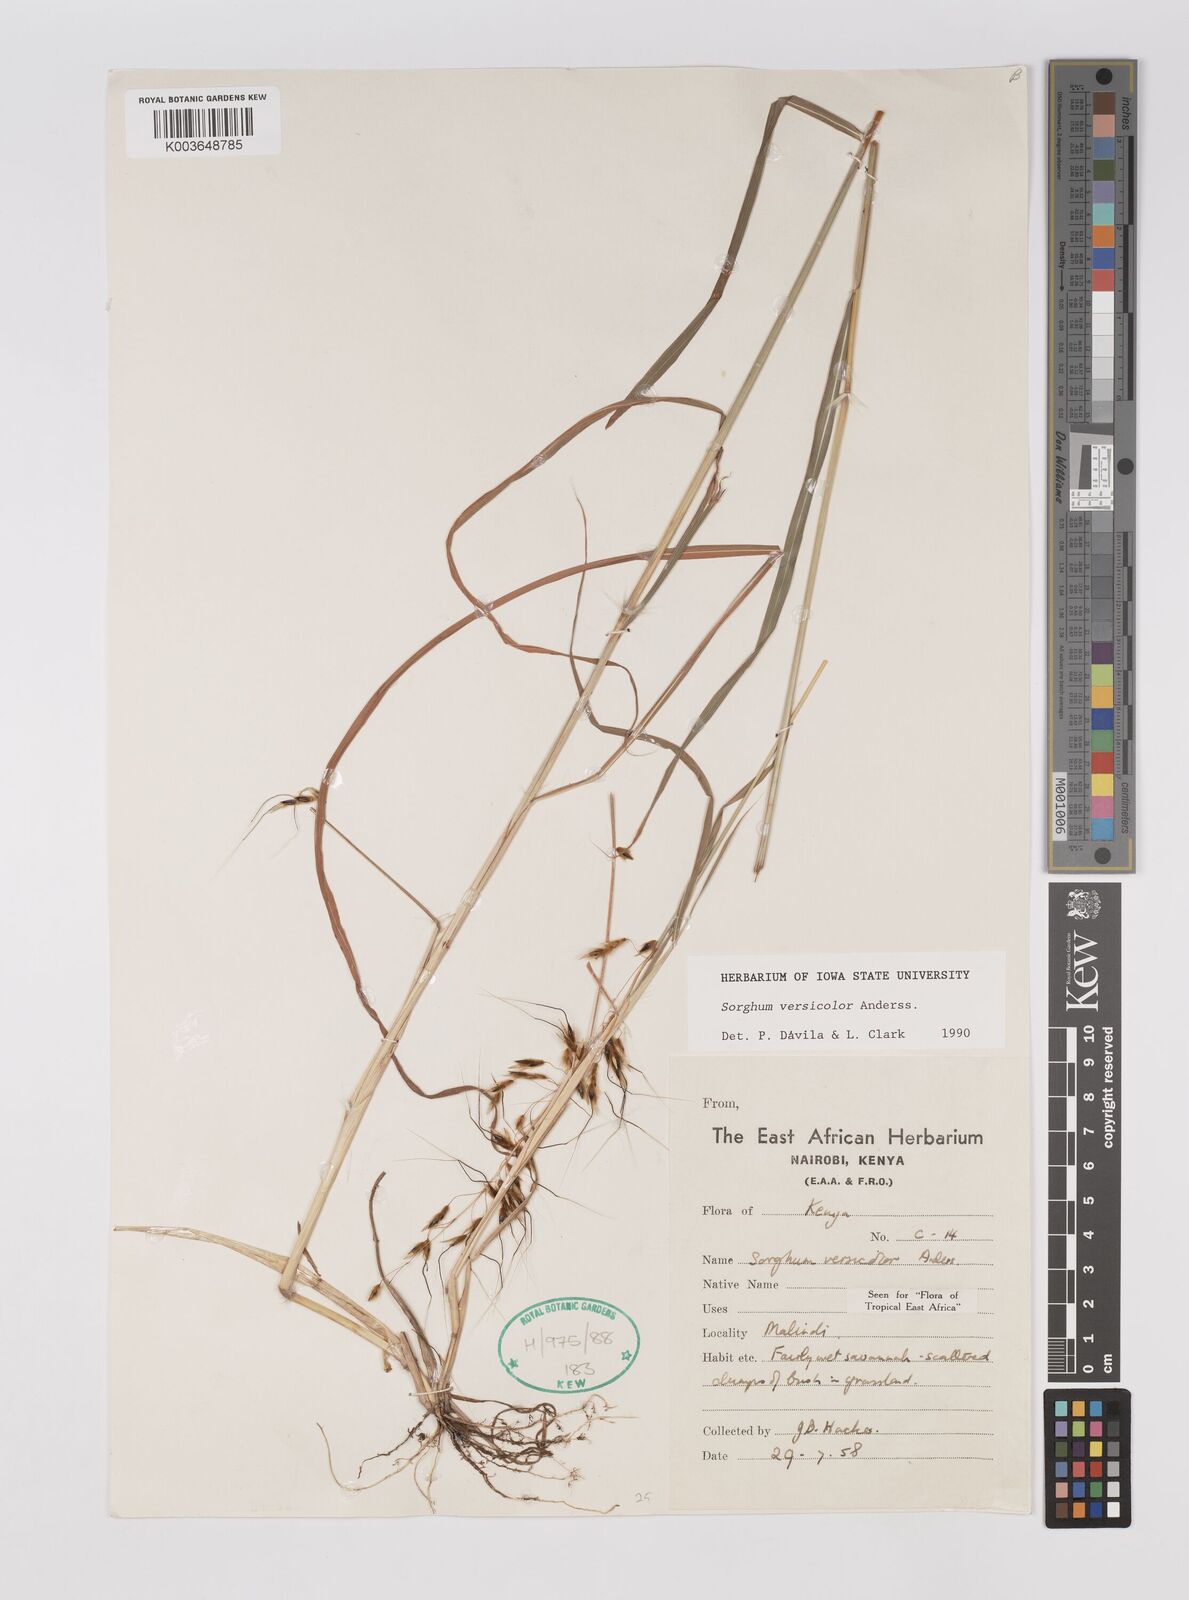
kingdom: Plantae
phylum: Tracheophyta
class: Liliopsida
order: Poales
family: Poaceae
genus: Sarga
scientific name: Sarga versicolor
